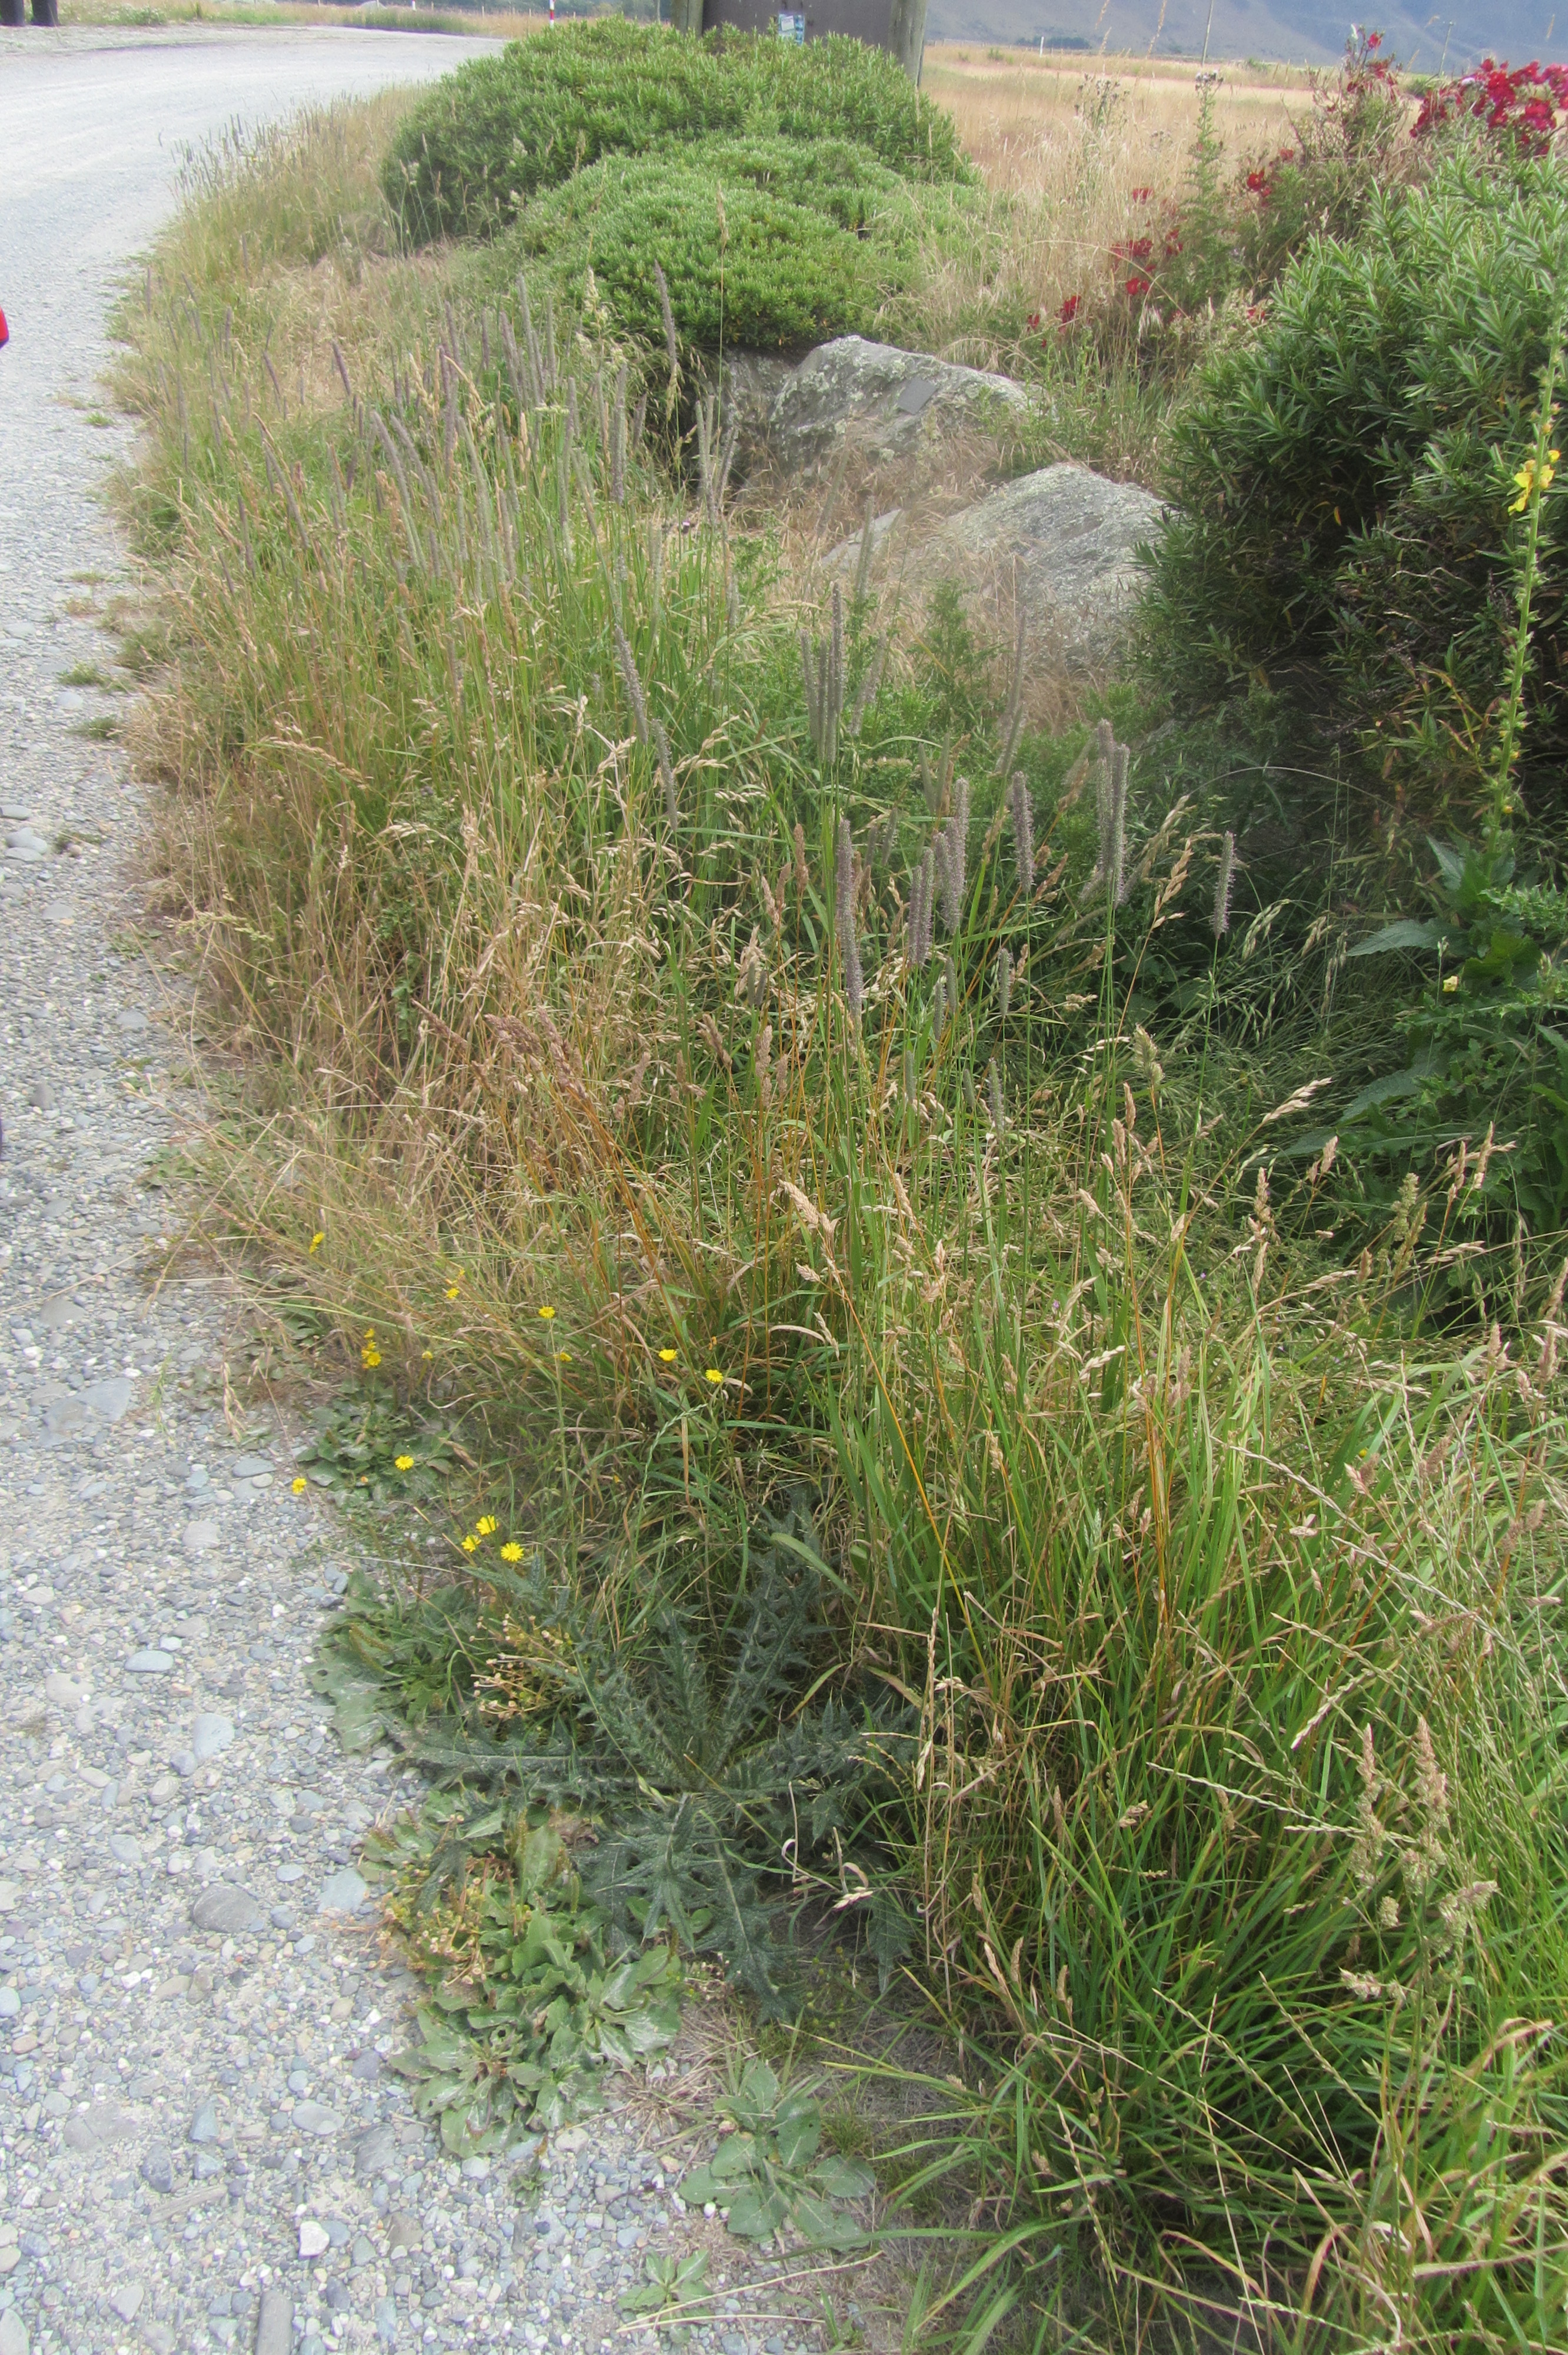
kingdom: Plantae
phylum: Tracheophyta
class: Liliopsida
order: Poales
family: Poaceae
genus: Phleum
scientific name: Phleum pratense
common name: Timothy grass
